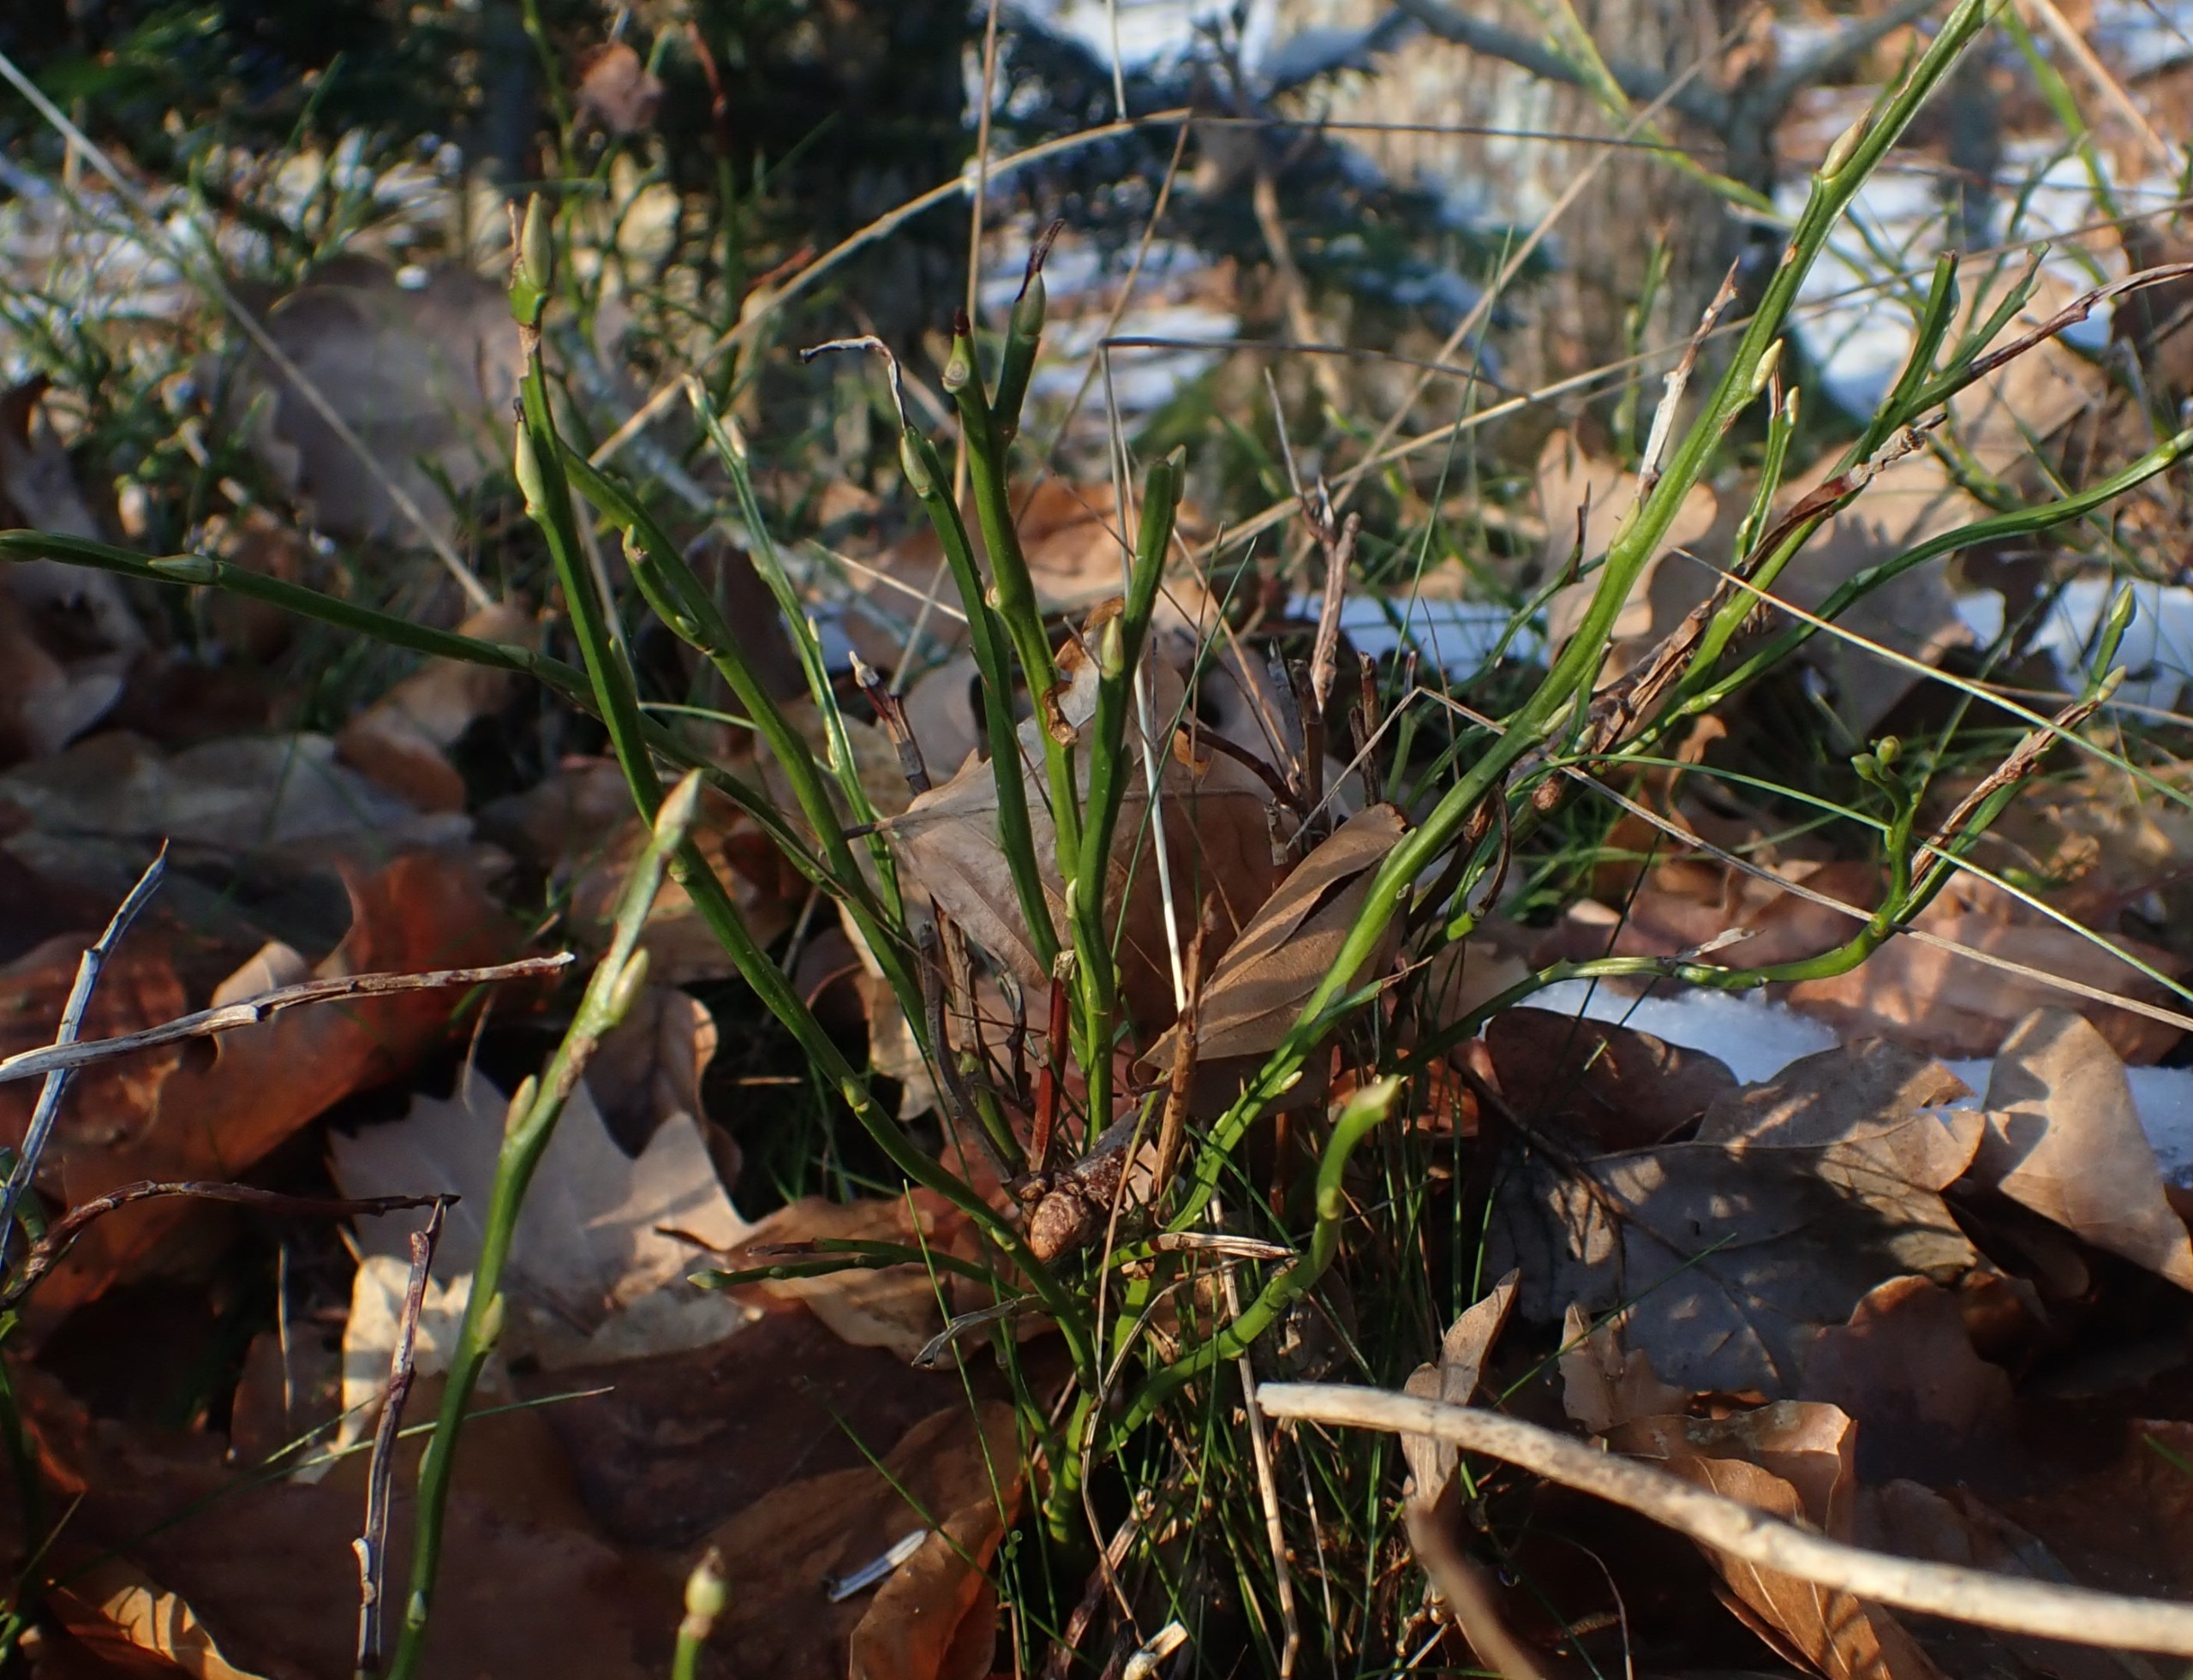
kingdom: Plantae
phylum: Tracheophyta
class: Magnoliopsida
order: Ericales
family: Ericaceae
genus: Vaccinium
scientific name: Vaccinium myrtillus
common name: Blåbær
